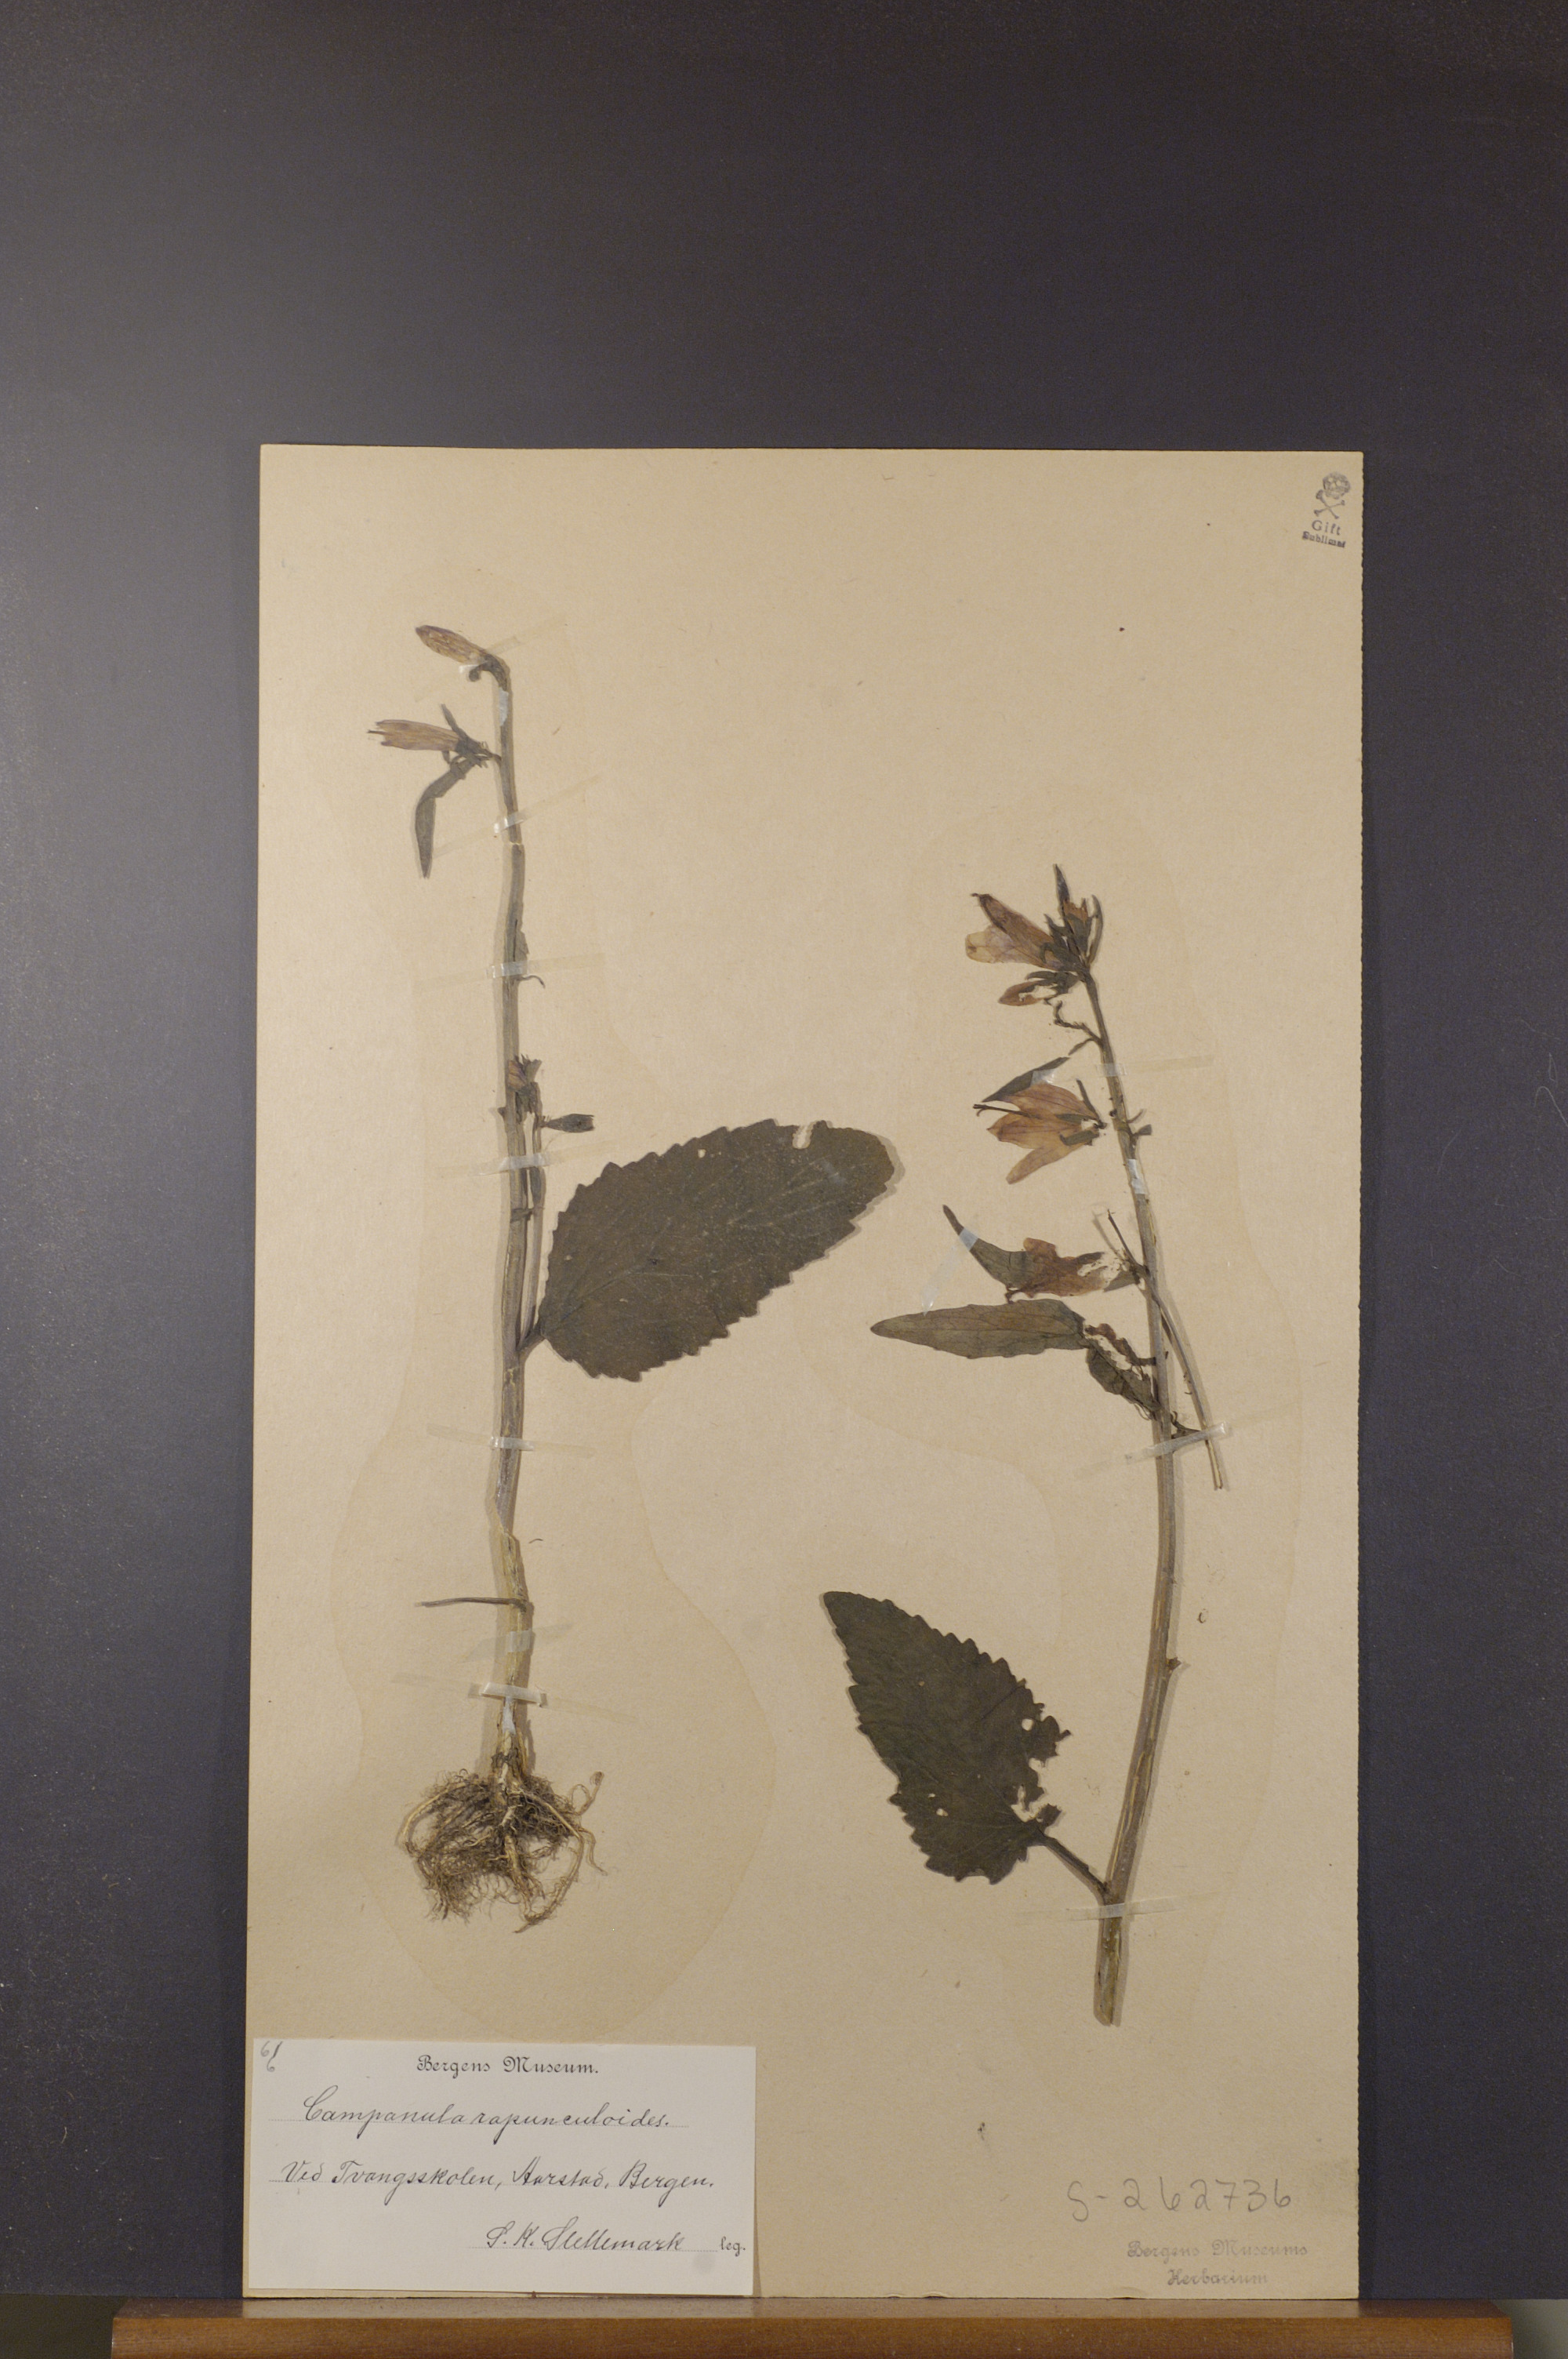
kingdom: Plantae
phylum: Tracheophyta
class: Magnoliopsida
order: Asterales
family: Campanulaceae
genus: Campanula
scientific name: Campanula rapunculoides
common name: Creeping bellflower
